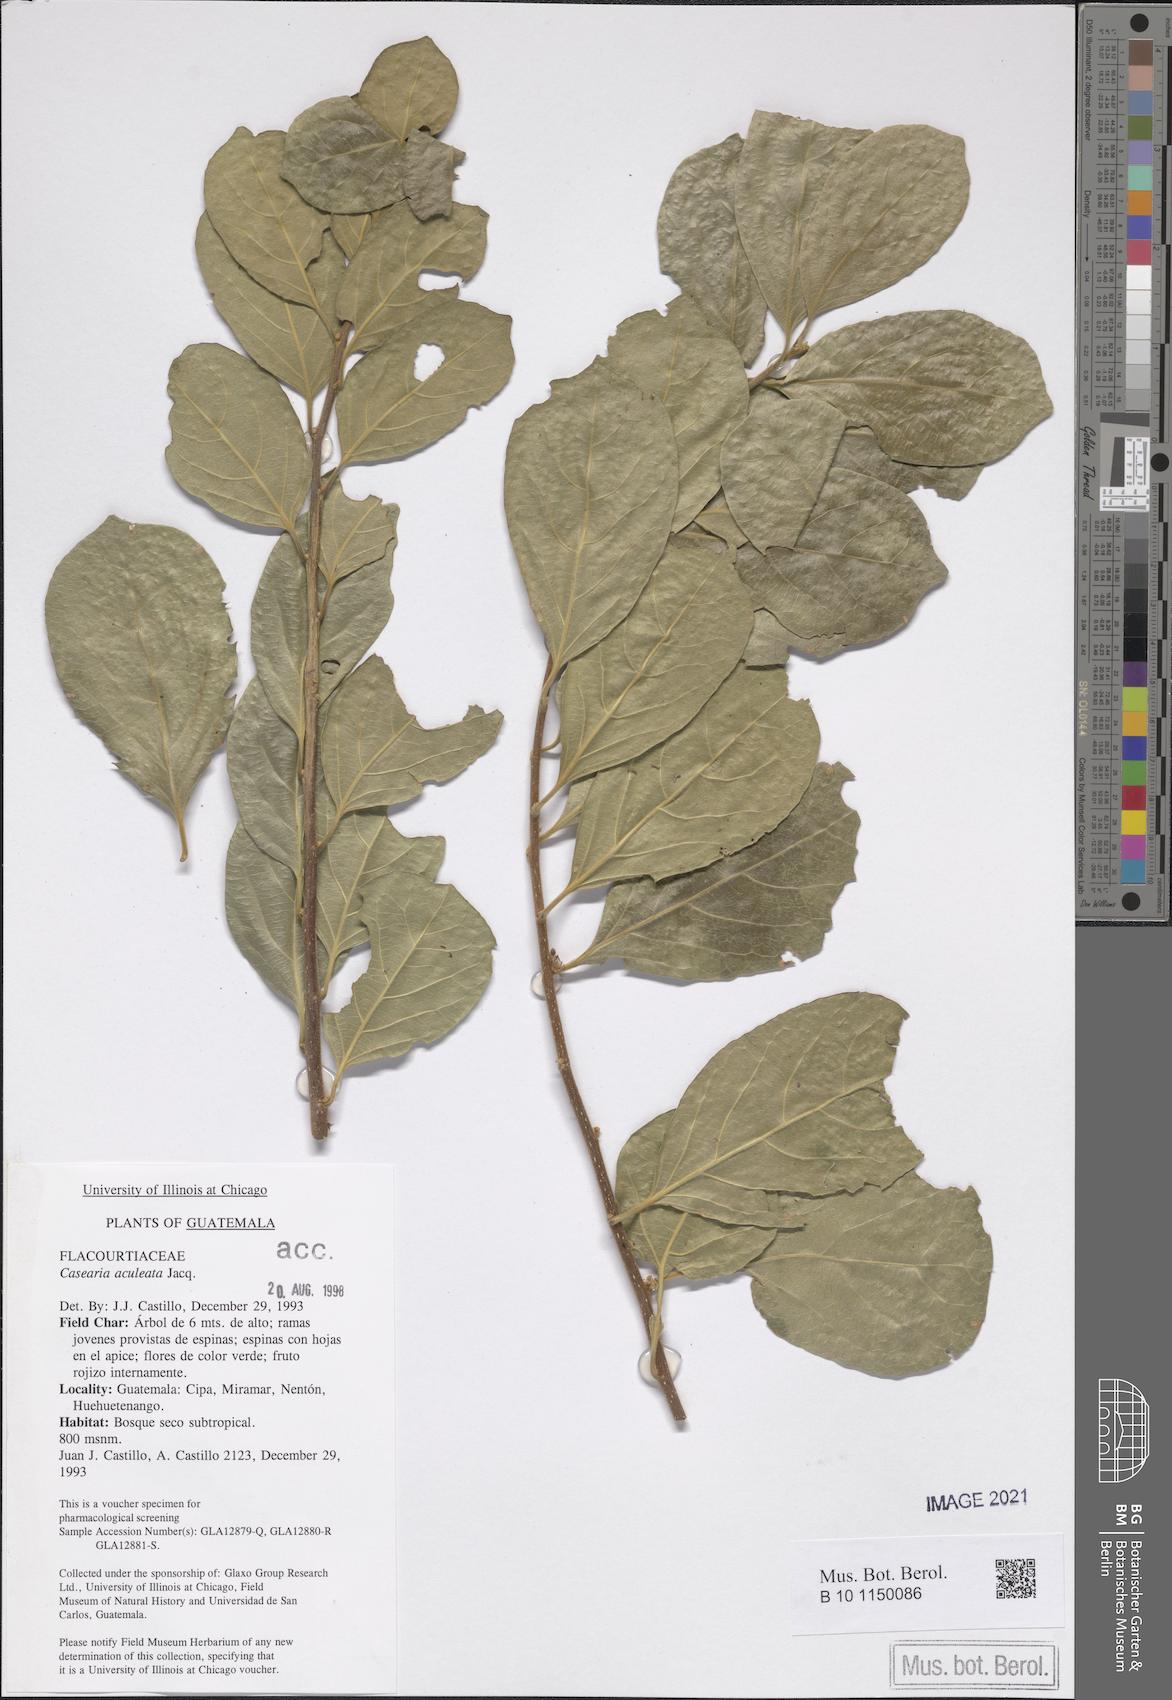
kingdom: Plantae
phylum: Tracheophyta
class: Magnoliopsida
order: Malpighiales
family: Salicaceae
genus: Casearia
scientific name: Casearia aculeata
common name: Cockspur
